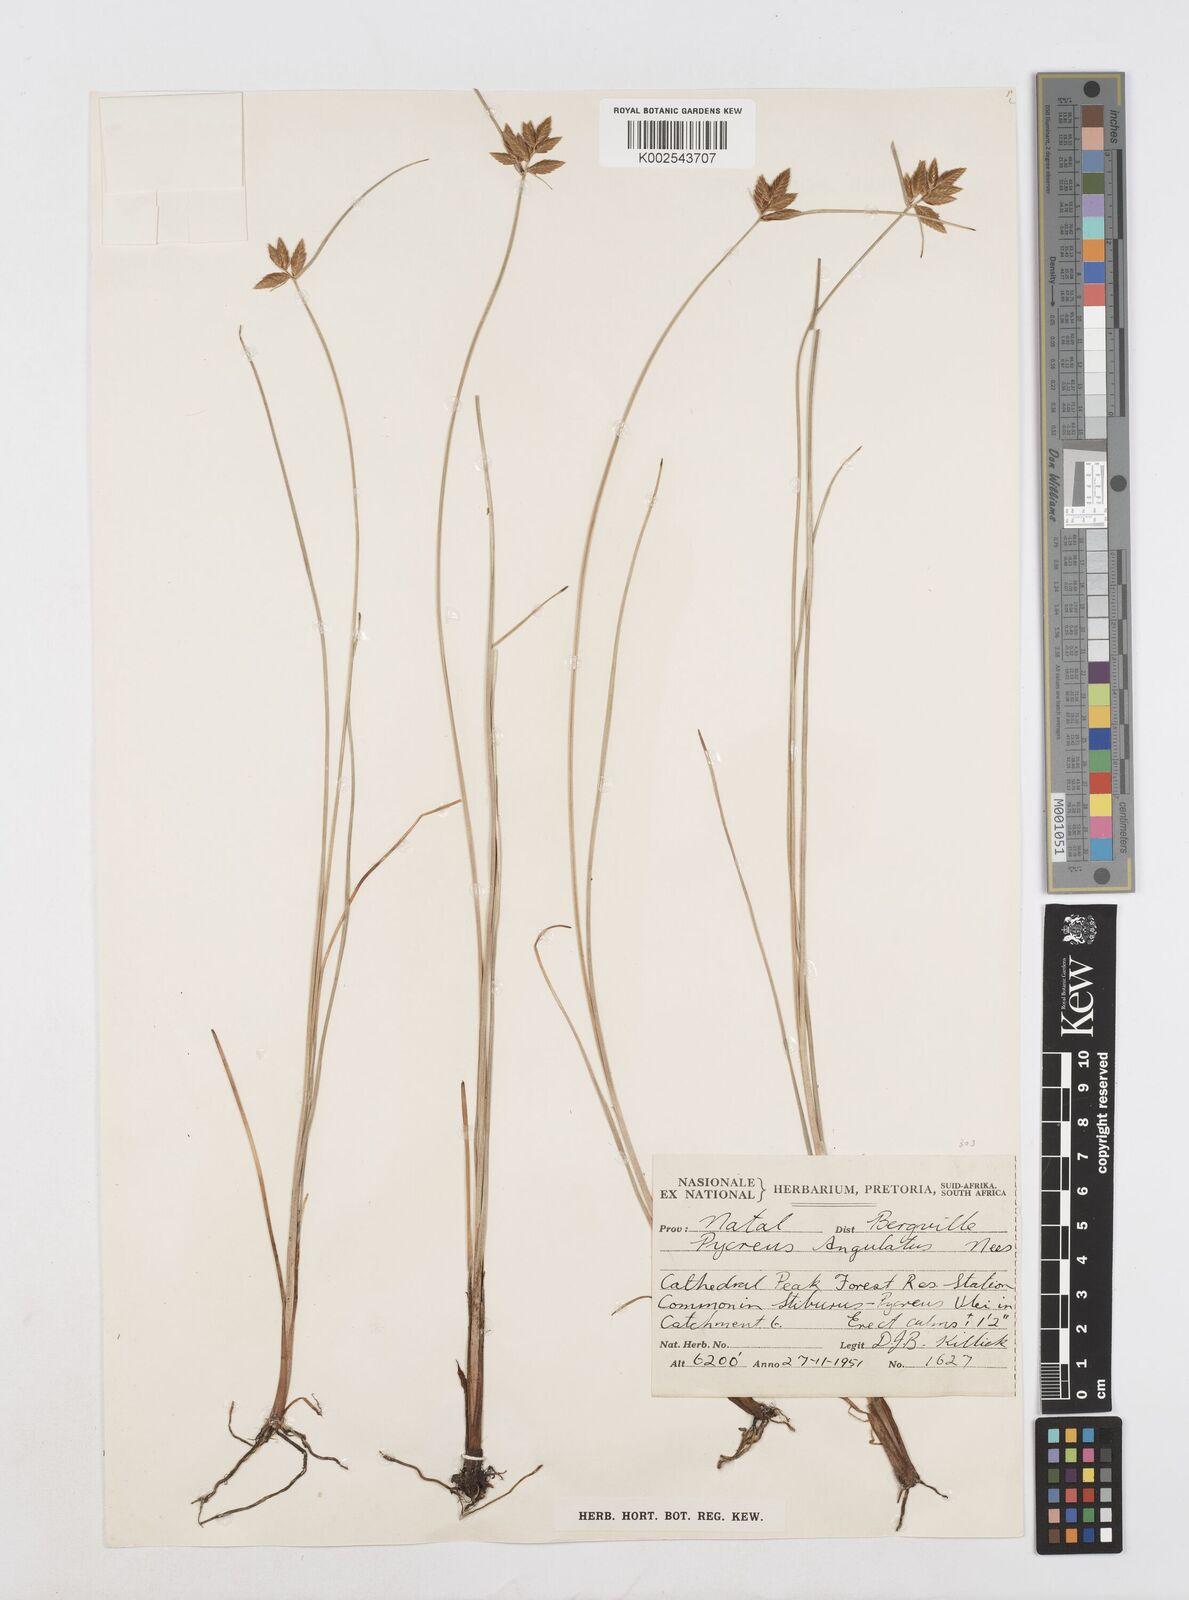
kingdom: Plantae
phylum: Tracheophyta
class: Liliopsida
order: Poales
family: Cyperaceae
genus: Cyperus
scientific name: Cyperus unioloides
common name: Uniola flatsedge
